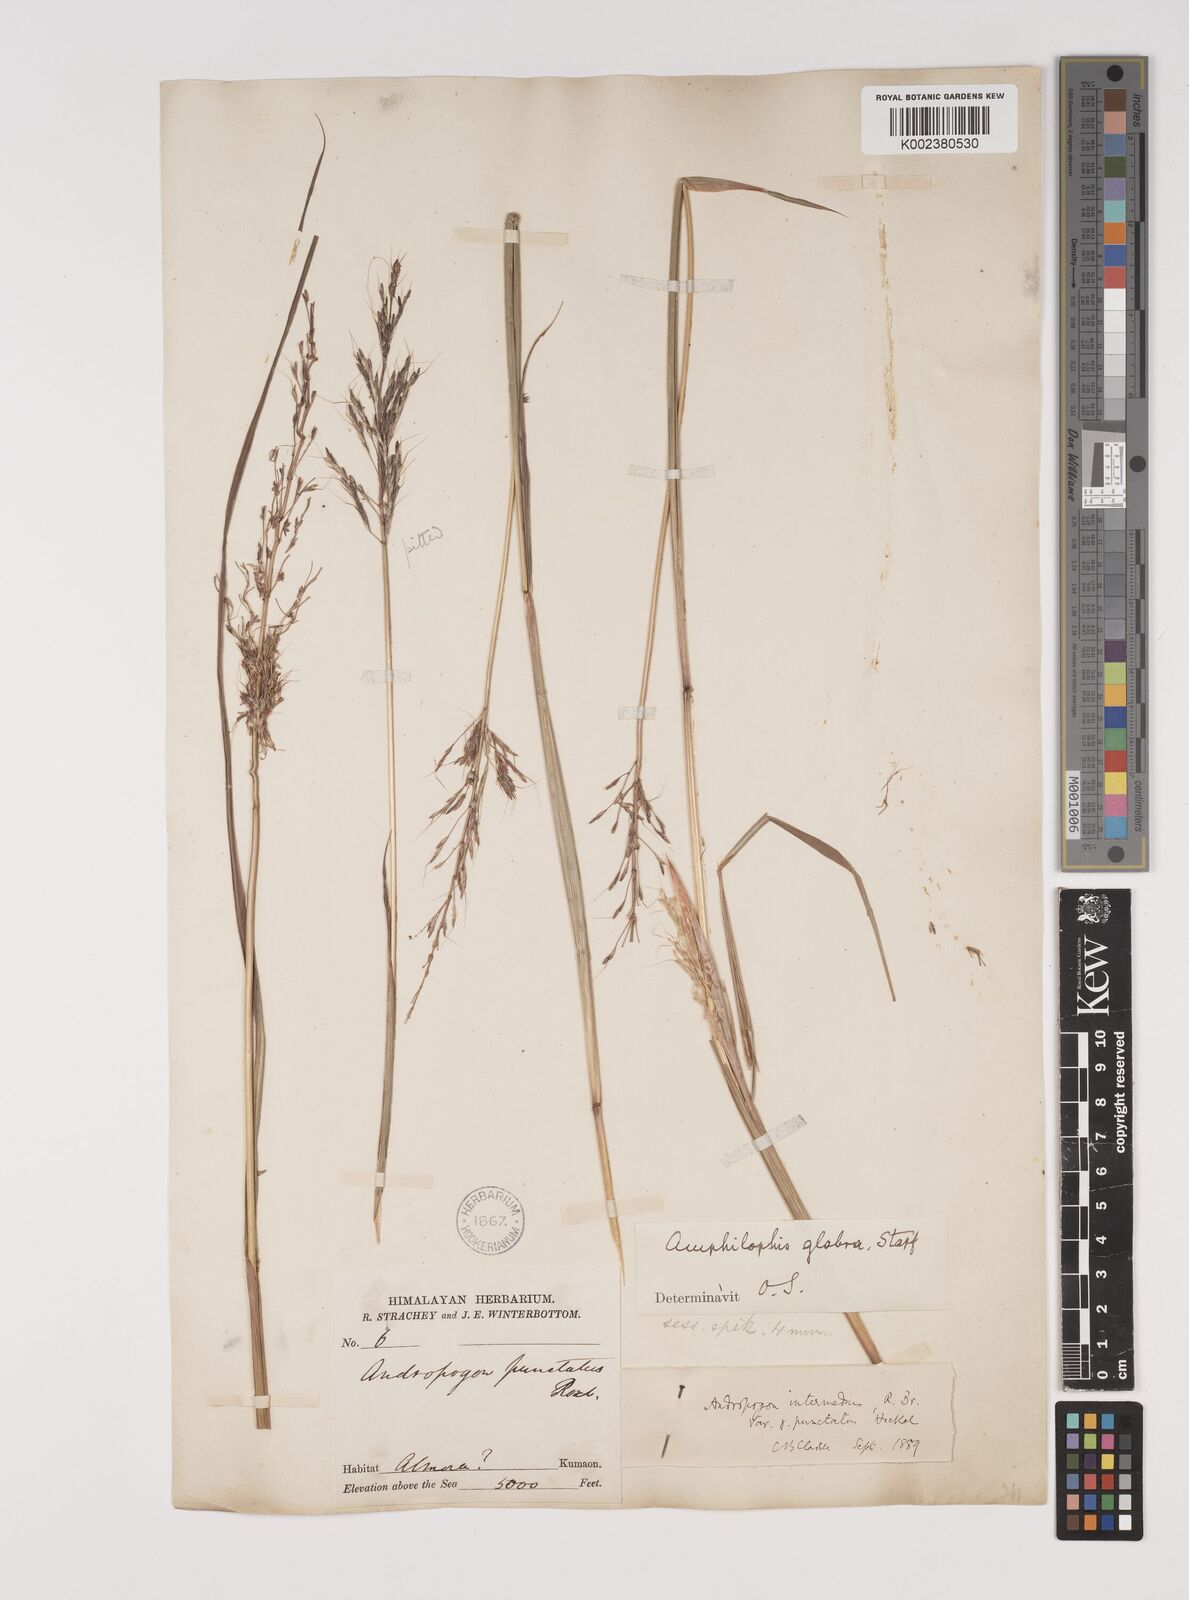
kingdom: Plantae
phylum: Tracheophyta
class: Liliopsida
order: Poales
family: Poaceae
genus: Bothriochloa
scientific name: Bothriochloa bladhii
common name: Caucasian bluestem
